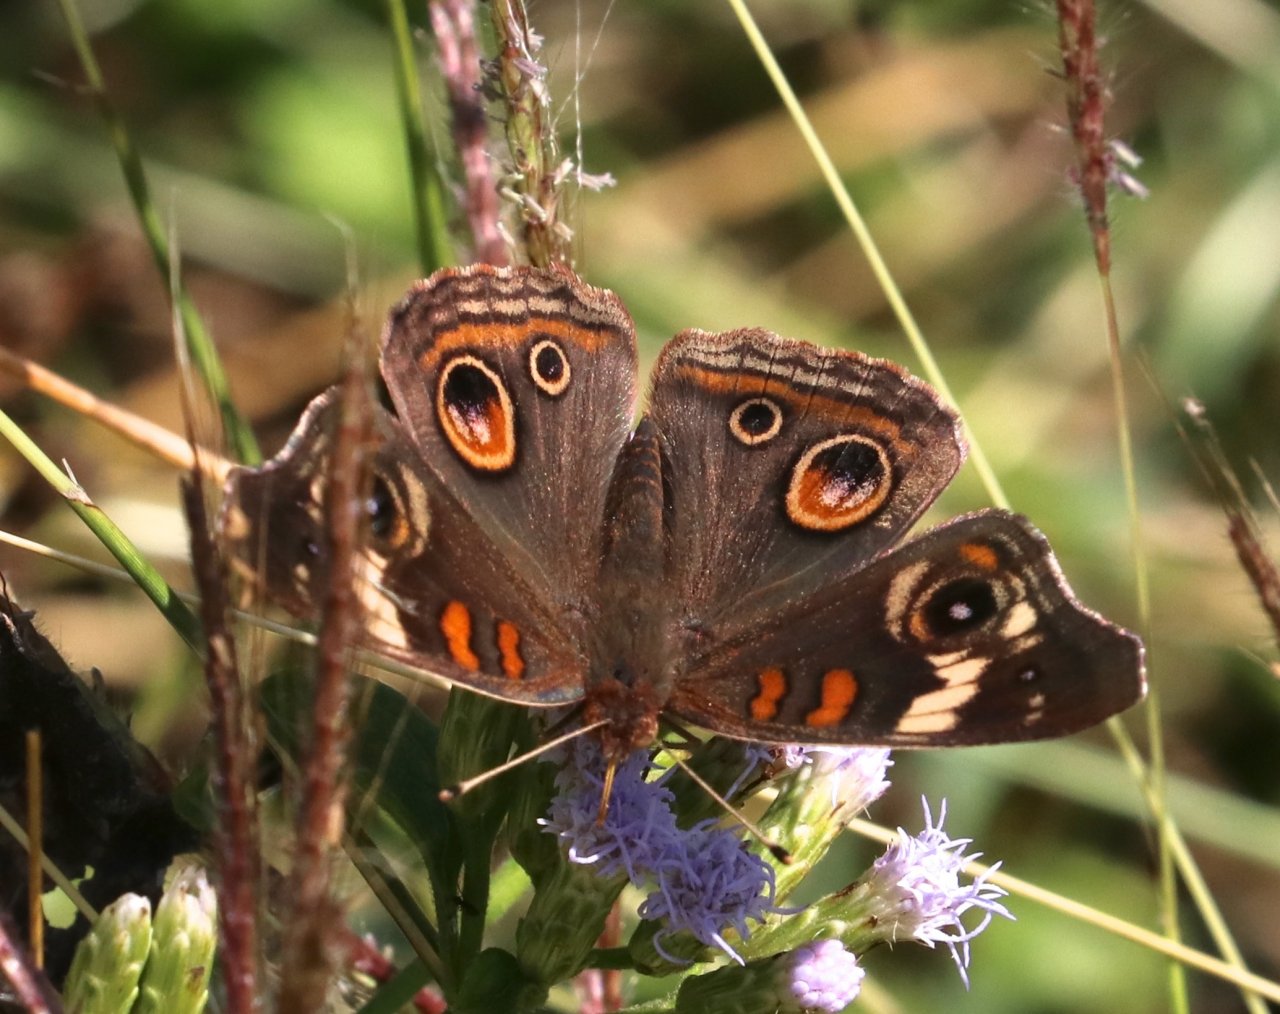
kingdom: Animalia
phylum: Arthropoda
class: Insecta
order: Lepidoptera
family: Nymphalidae
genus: Junonia
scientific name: Junonia coenia
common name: Common Buckeye
